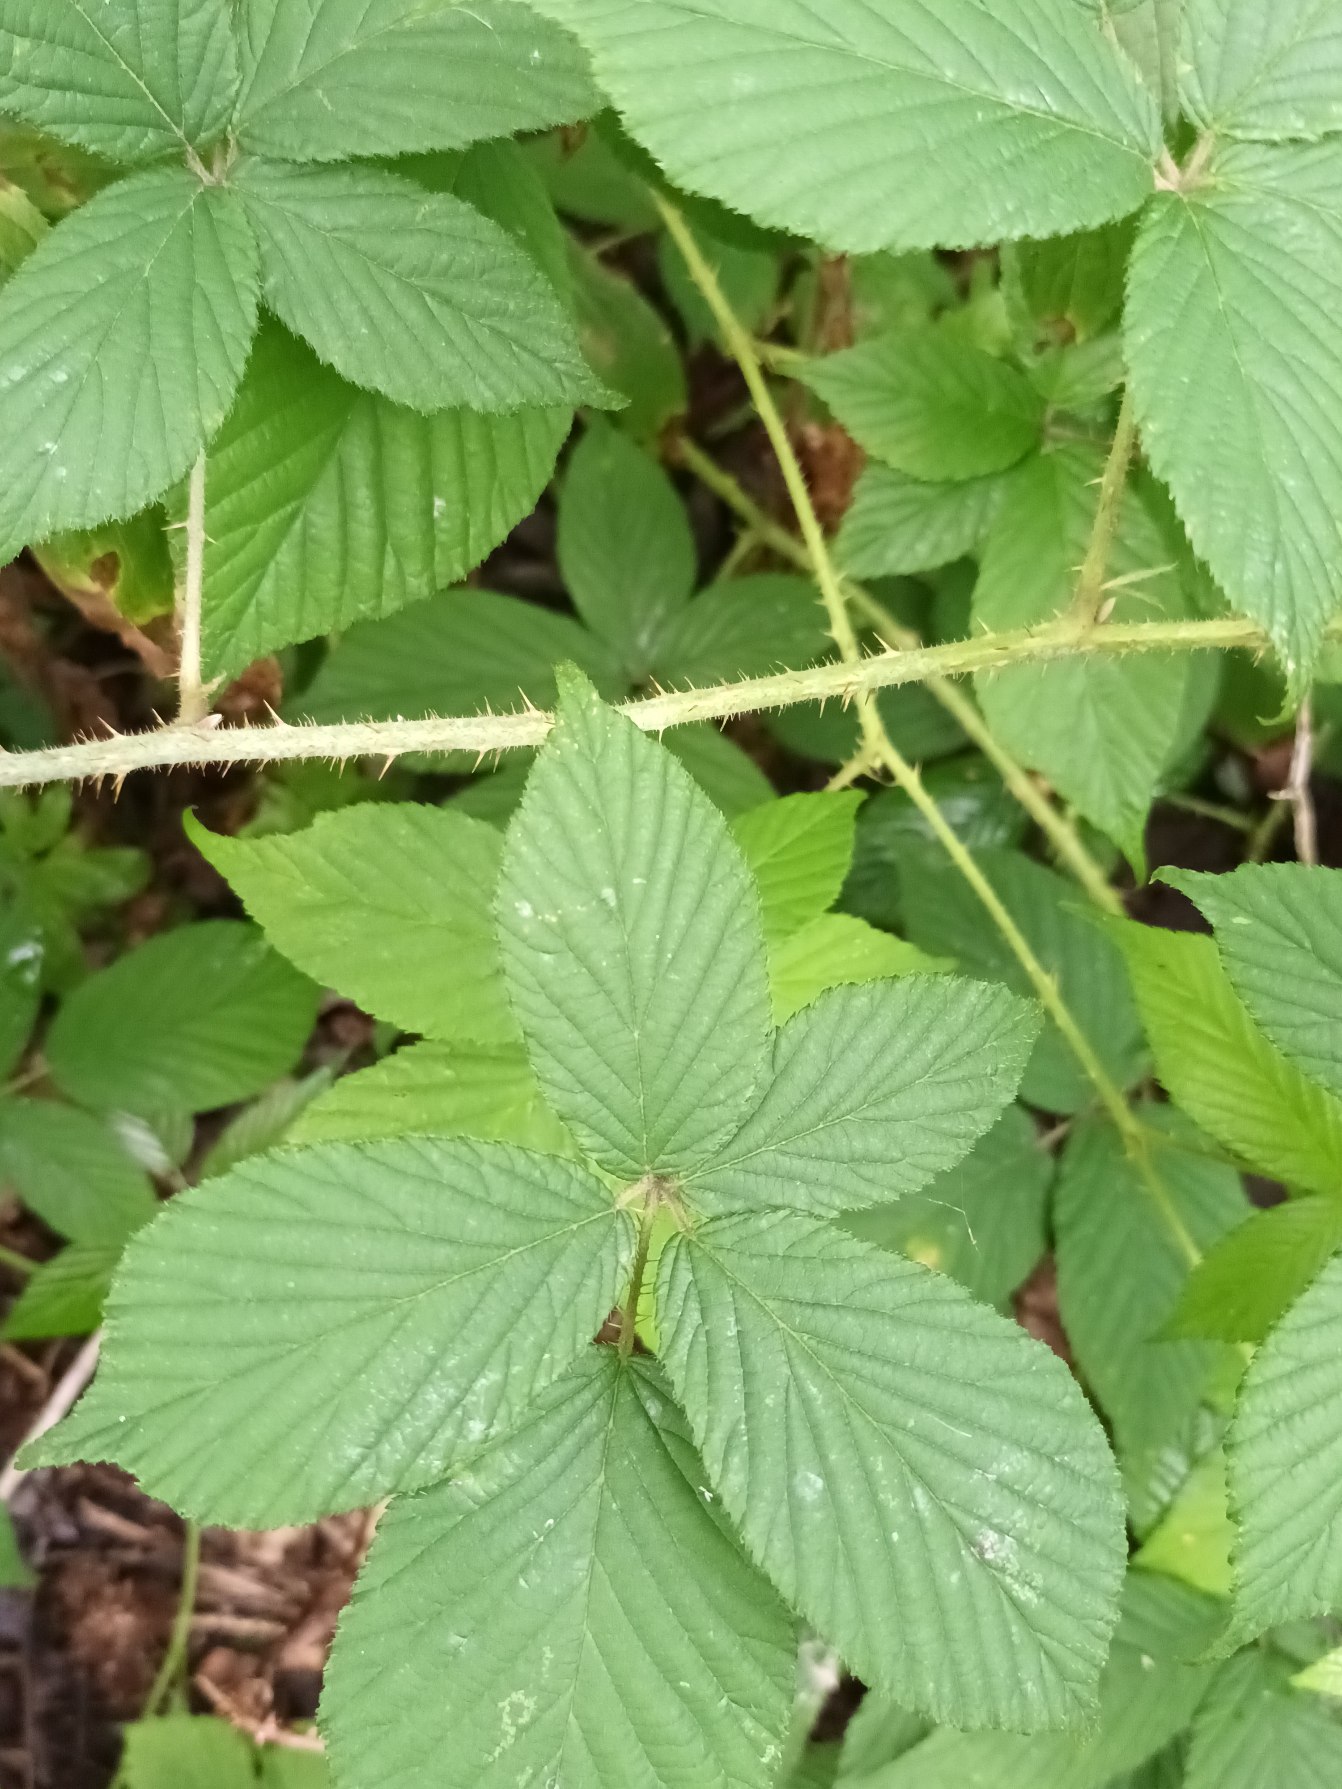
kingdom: Plantae
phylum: Tracheophyta
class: Magnoliopsida
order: Rosales
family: Rosaceae
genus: Rubus
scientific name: Rubus pallidus
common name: Blegblomstret brombær
